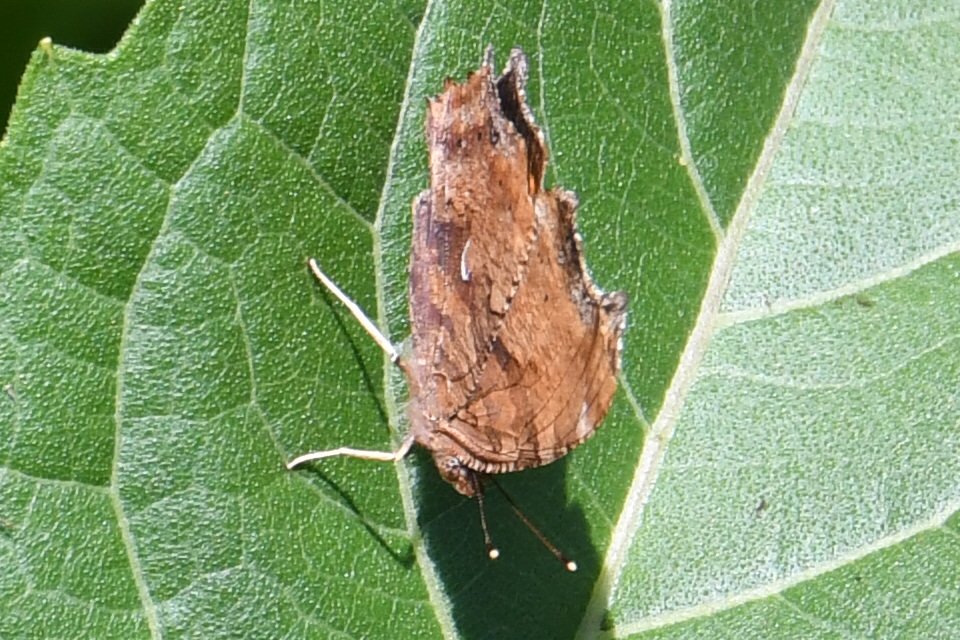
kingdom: Animalia
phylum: Arthropoda
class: Insecta
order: Lepidoptera
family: Nymphalidae
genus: Polygonia
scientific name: Polygonia comma
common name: Eastern Comma
